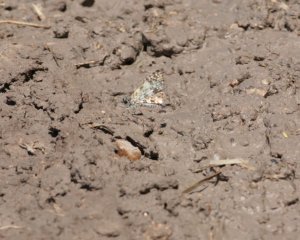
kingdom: Animalia
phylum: Arthropoda
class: Insecta
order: Lepidoptera
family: Hesperiidae
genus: Pyrgus
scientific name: Pyrgus oileus
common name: Tropical Checkered-Skipper
